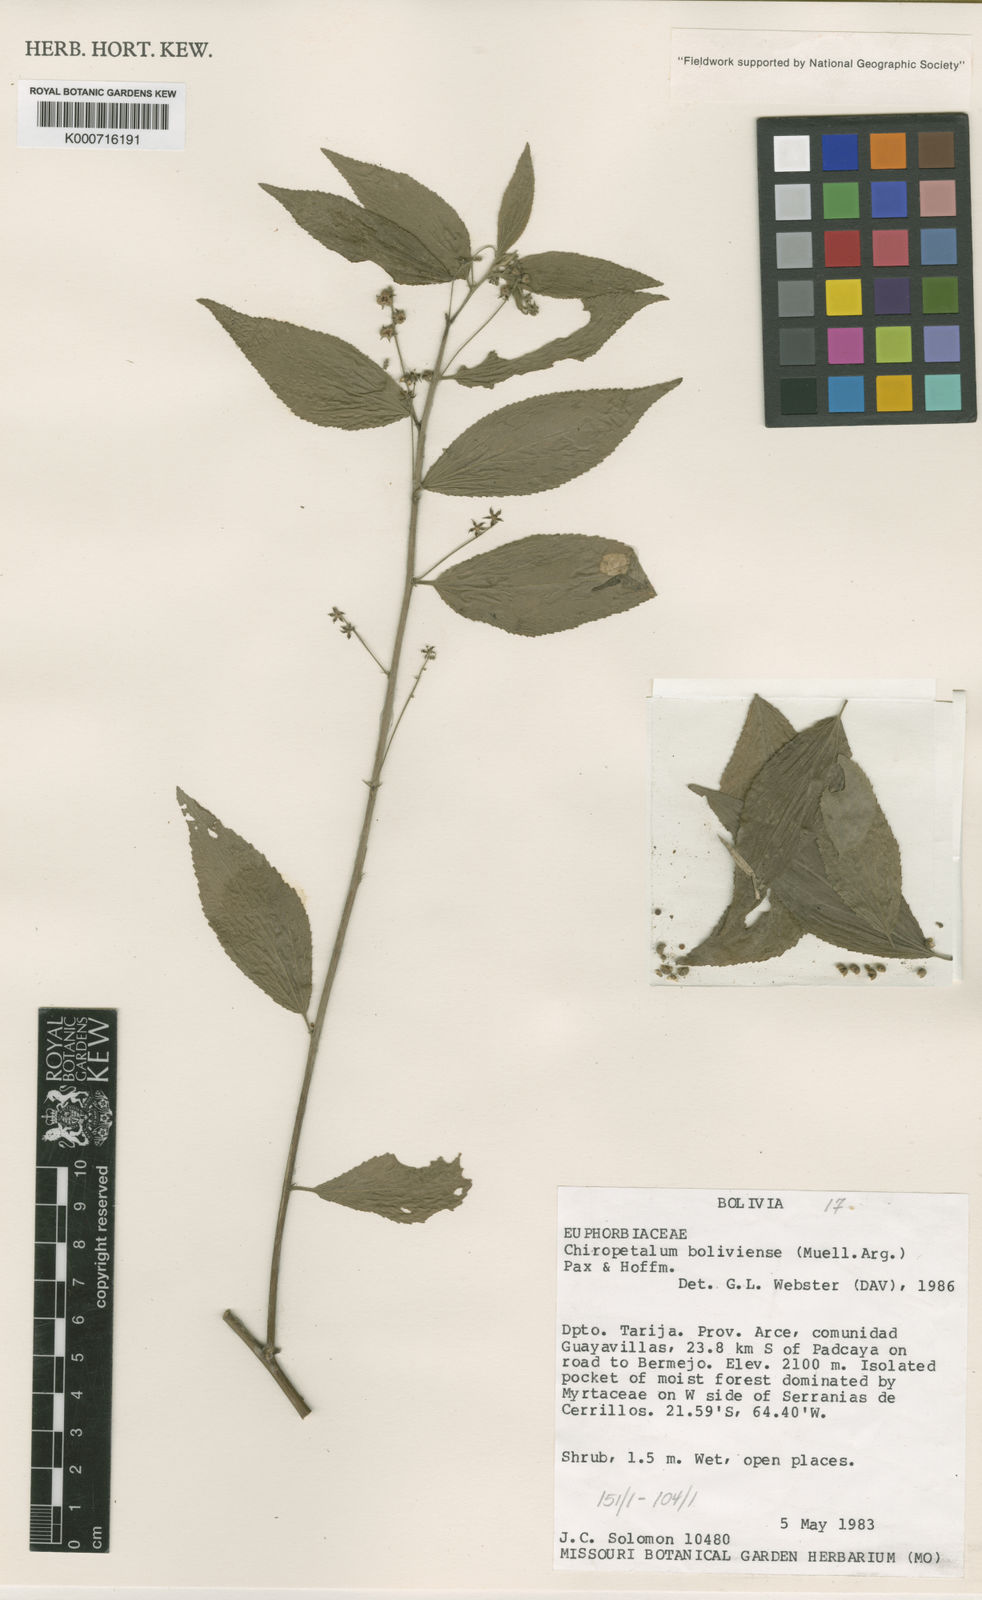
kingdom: Plantae
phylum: Tracheophyta
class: Magnoliopsida
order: Malpighiales
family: Euphorbiaceae
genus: Chiropetalum
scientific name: Chiropetalum
